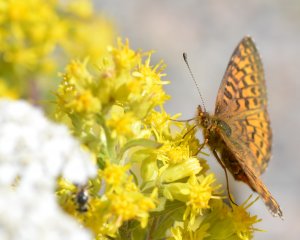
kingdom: Animalia
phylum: Arthropoda
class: Insecta
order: Lepidoptera
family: Nymphalidae
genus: Boloria
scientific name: Boloria chariclea
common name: Arctic Fritillary
